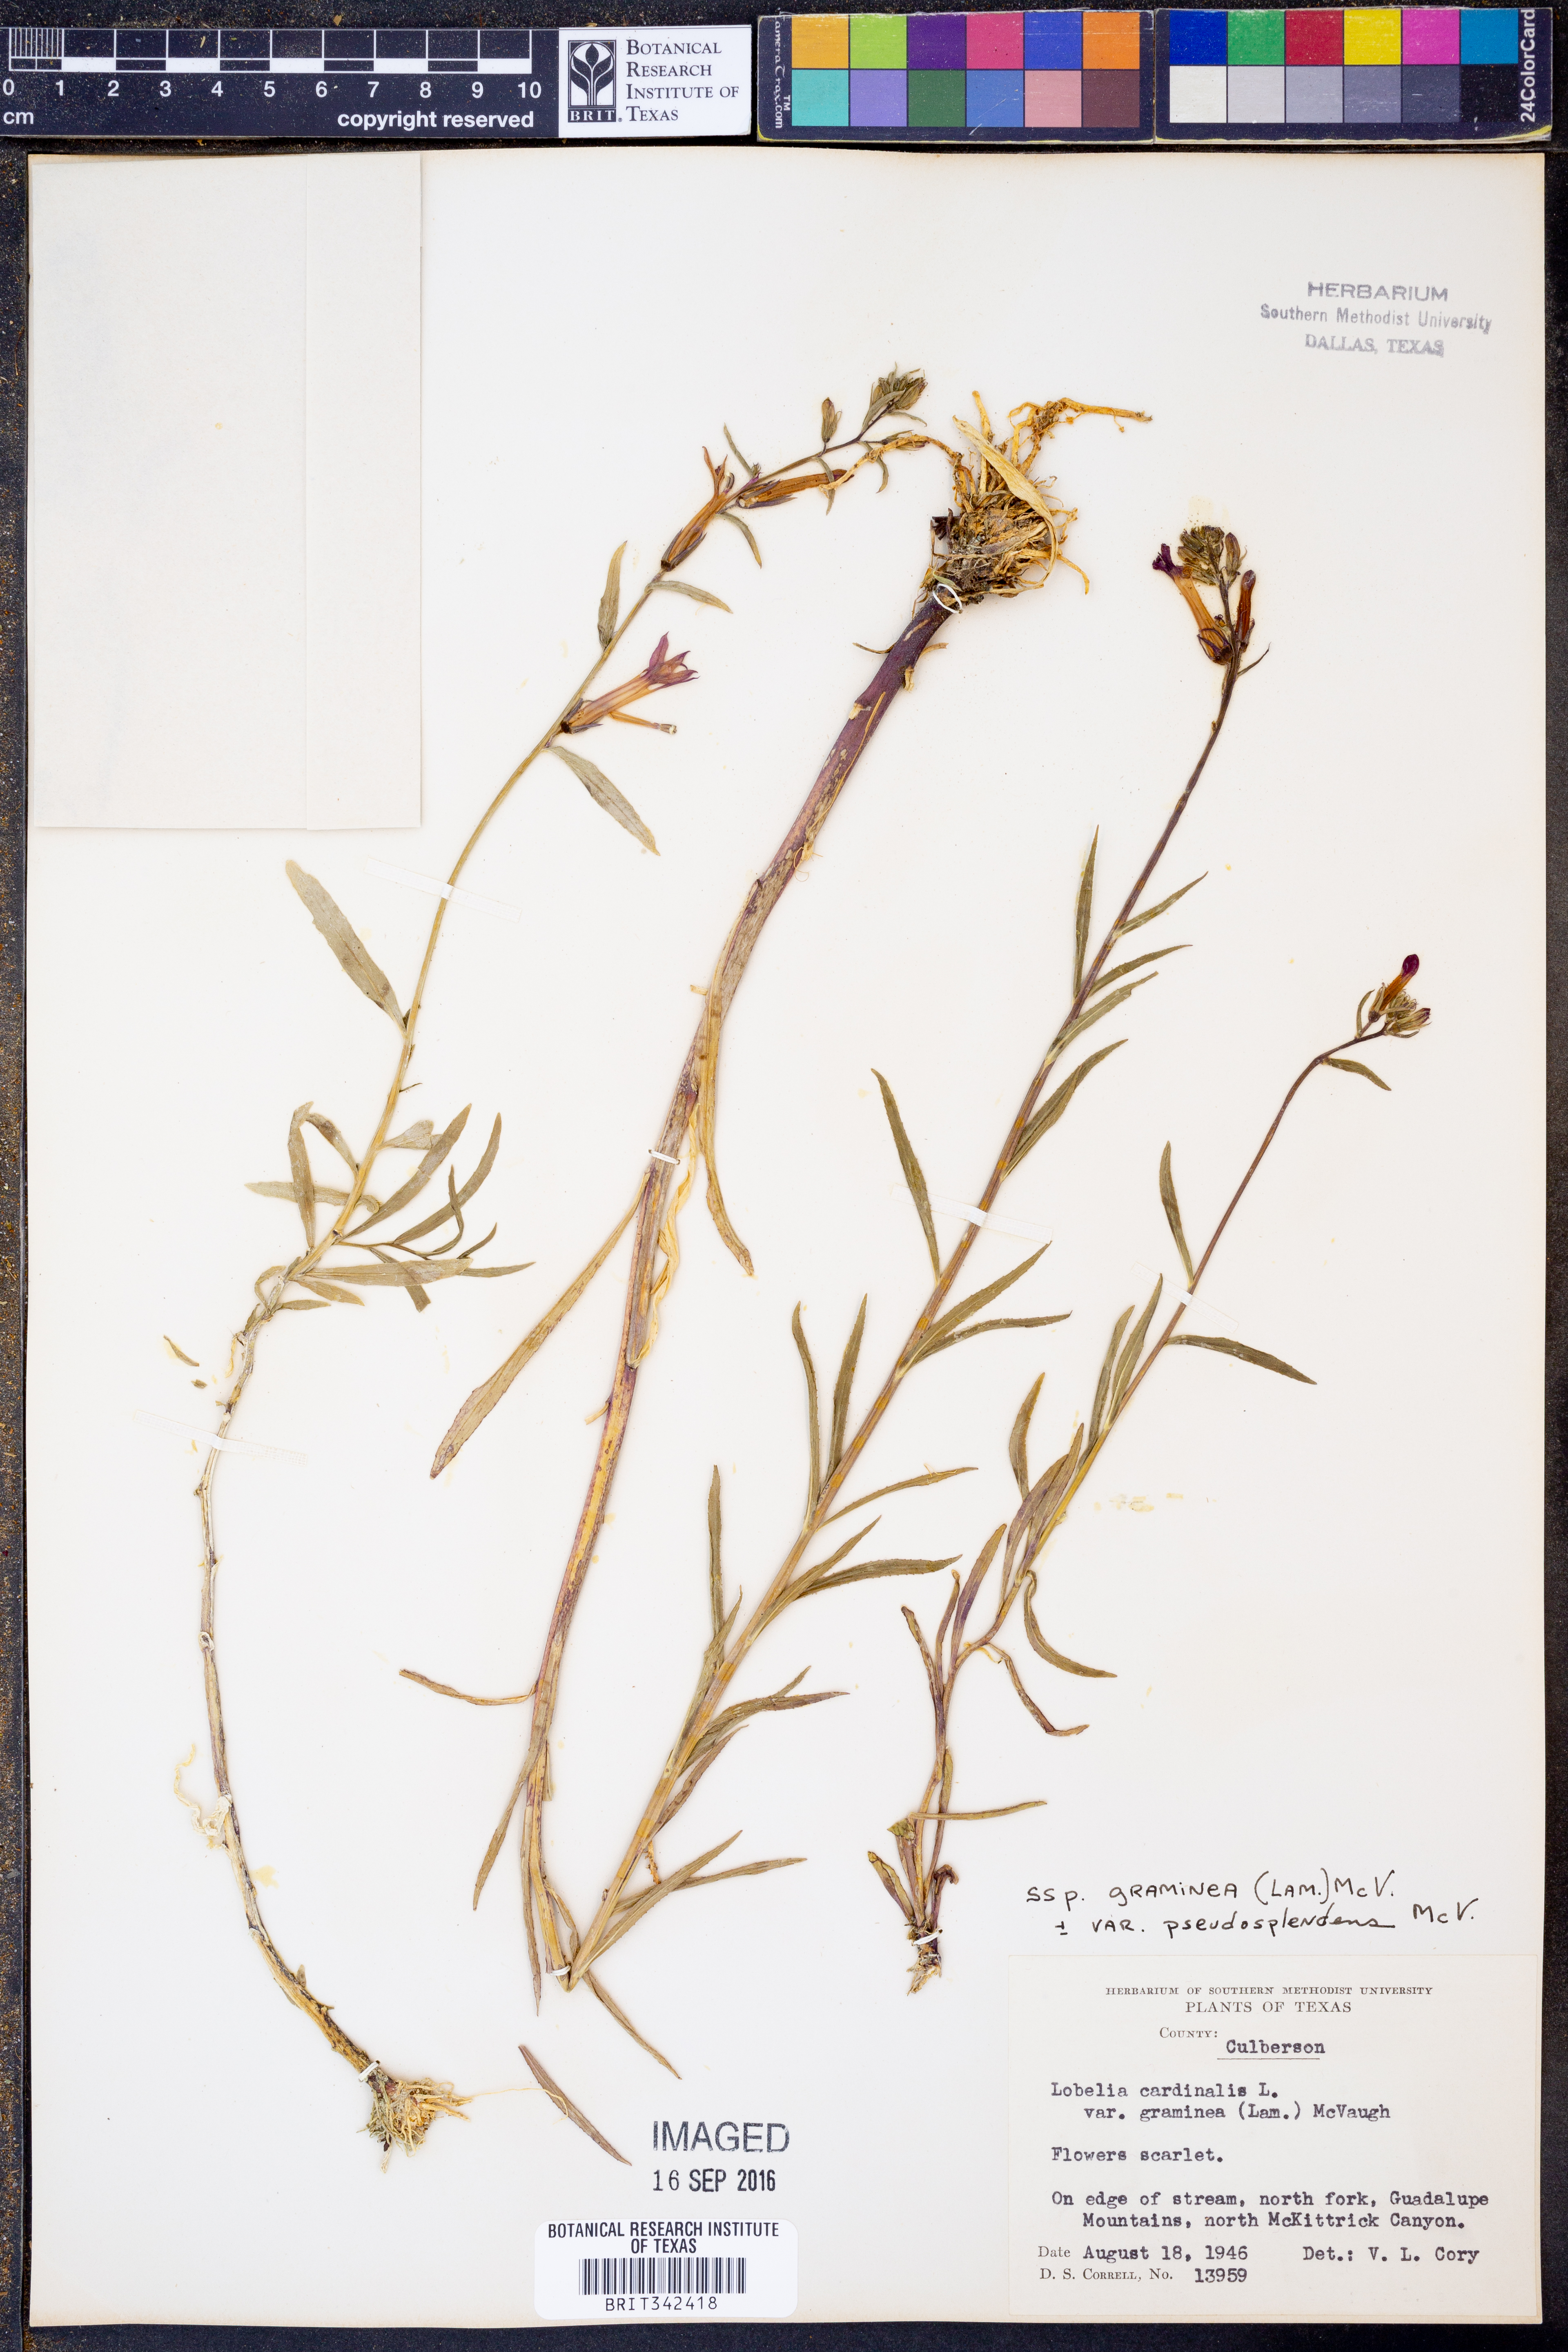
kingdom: Plantae
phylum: Tracheophyta
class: Magnoliopsida
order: Asterales
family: Campanulaceae
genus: Lobelia
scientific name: Lobelia cardinalis
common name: Cardinal flower
